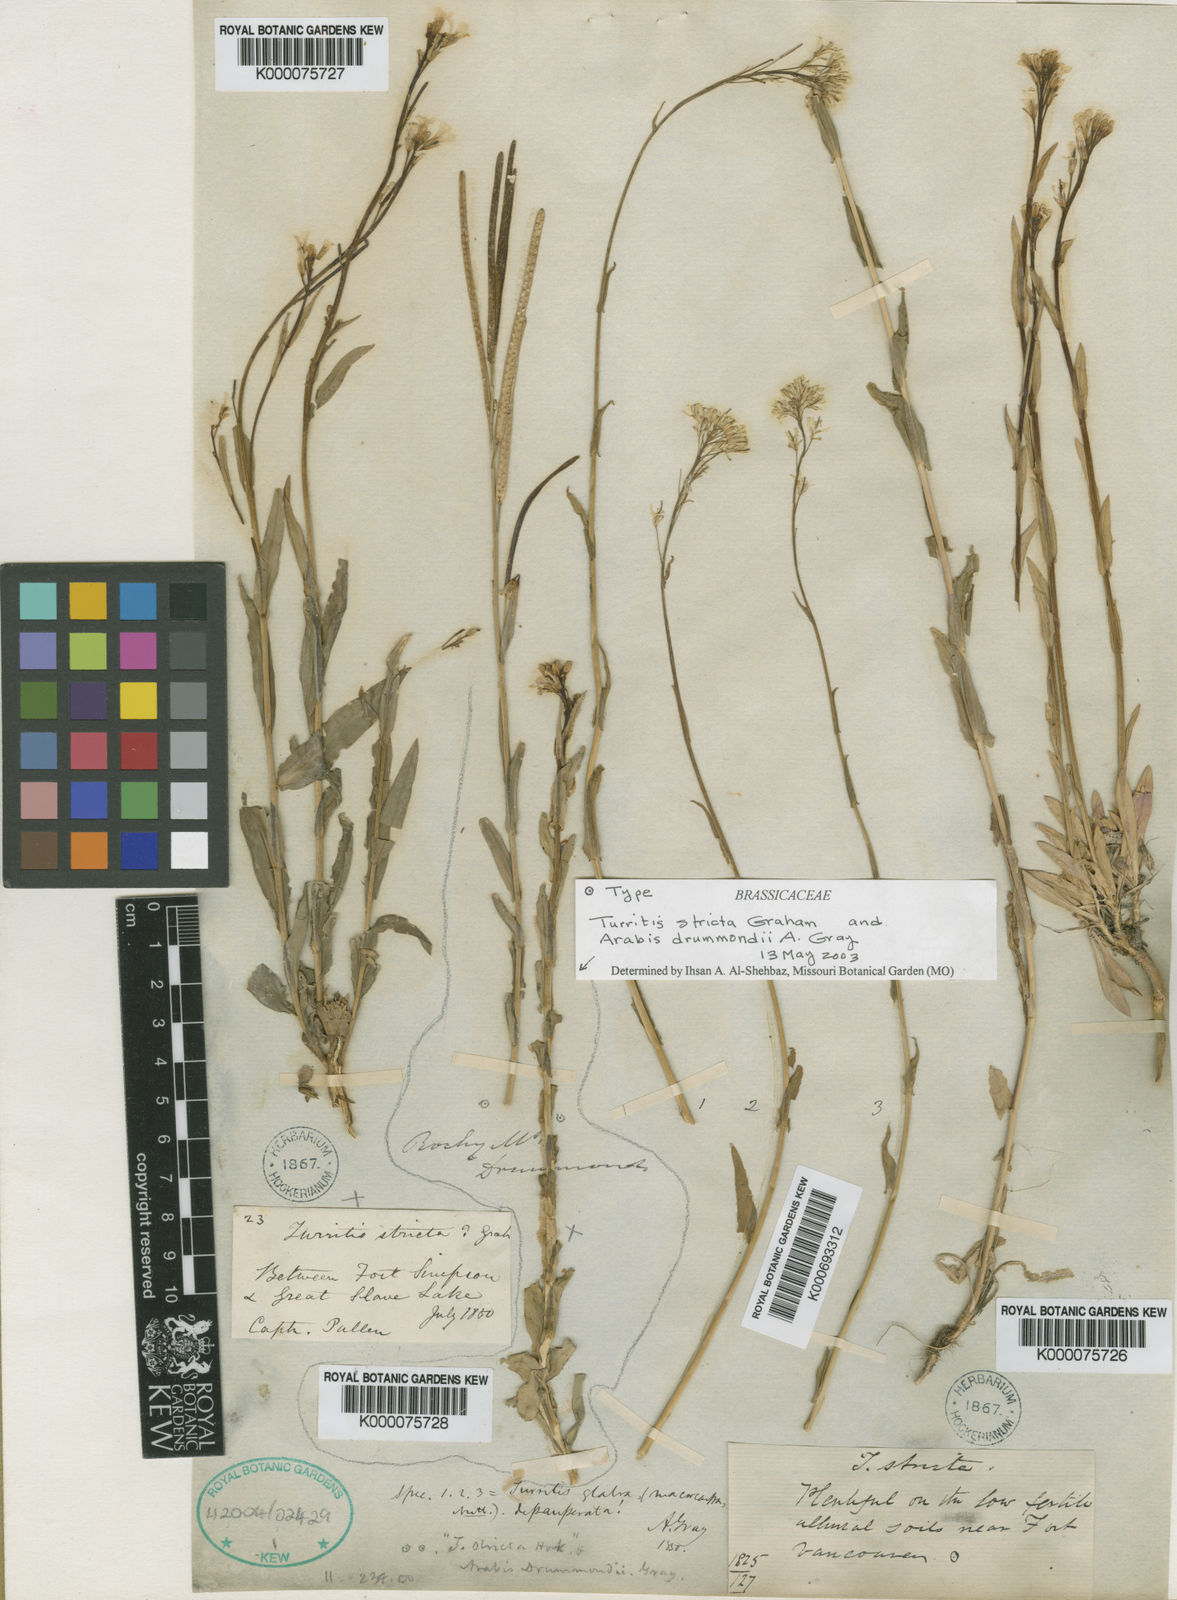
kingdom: Plantae
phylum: Tracheophyta
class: Magnoliopsida
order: Brassicales
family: Brassicaceae
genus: Boechera
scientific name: Boechera stricta
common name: Canadian rockcress
